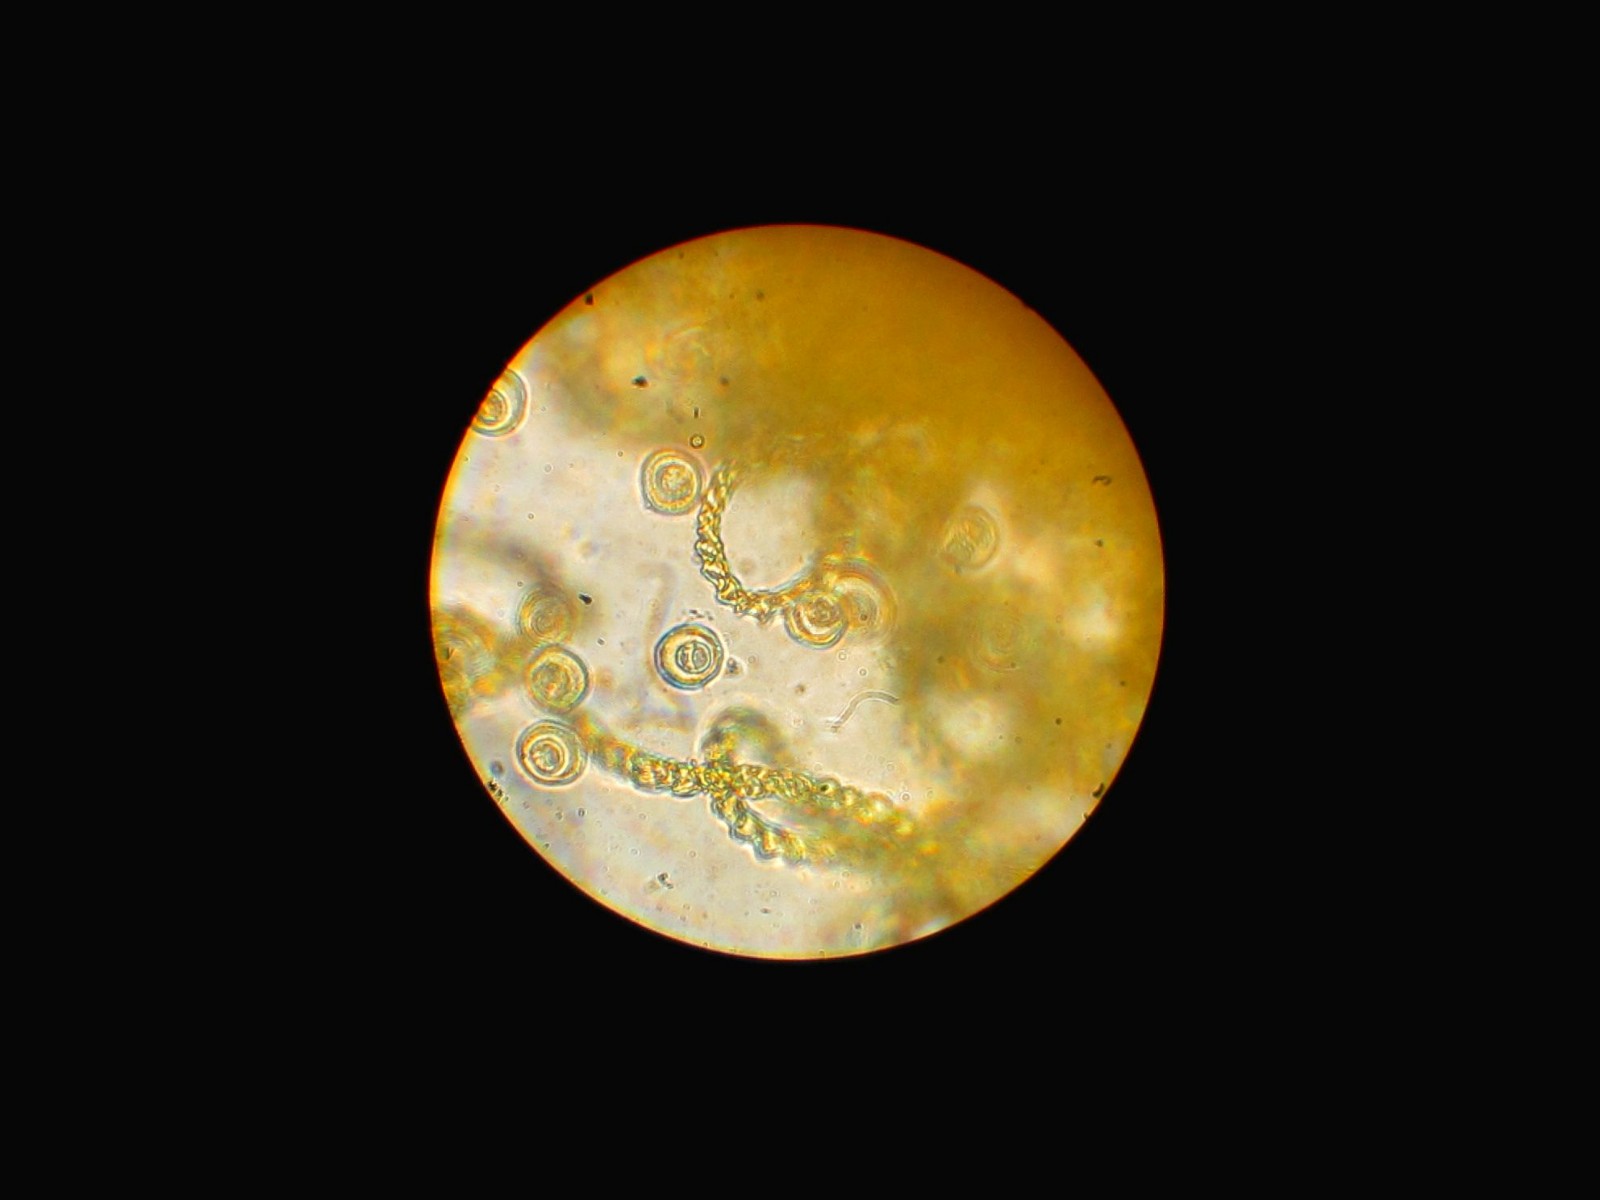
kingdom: Protozoa
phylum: Mycetozoa
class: Myxomycetes
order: Trichiales
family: Trichiaceae
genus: Trichia
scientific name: Trichia varia
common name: foranderlig hårbold
